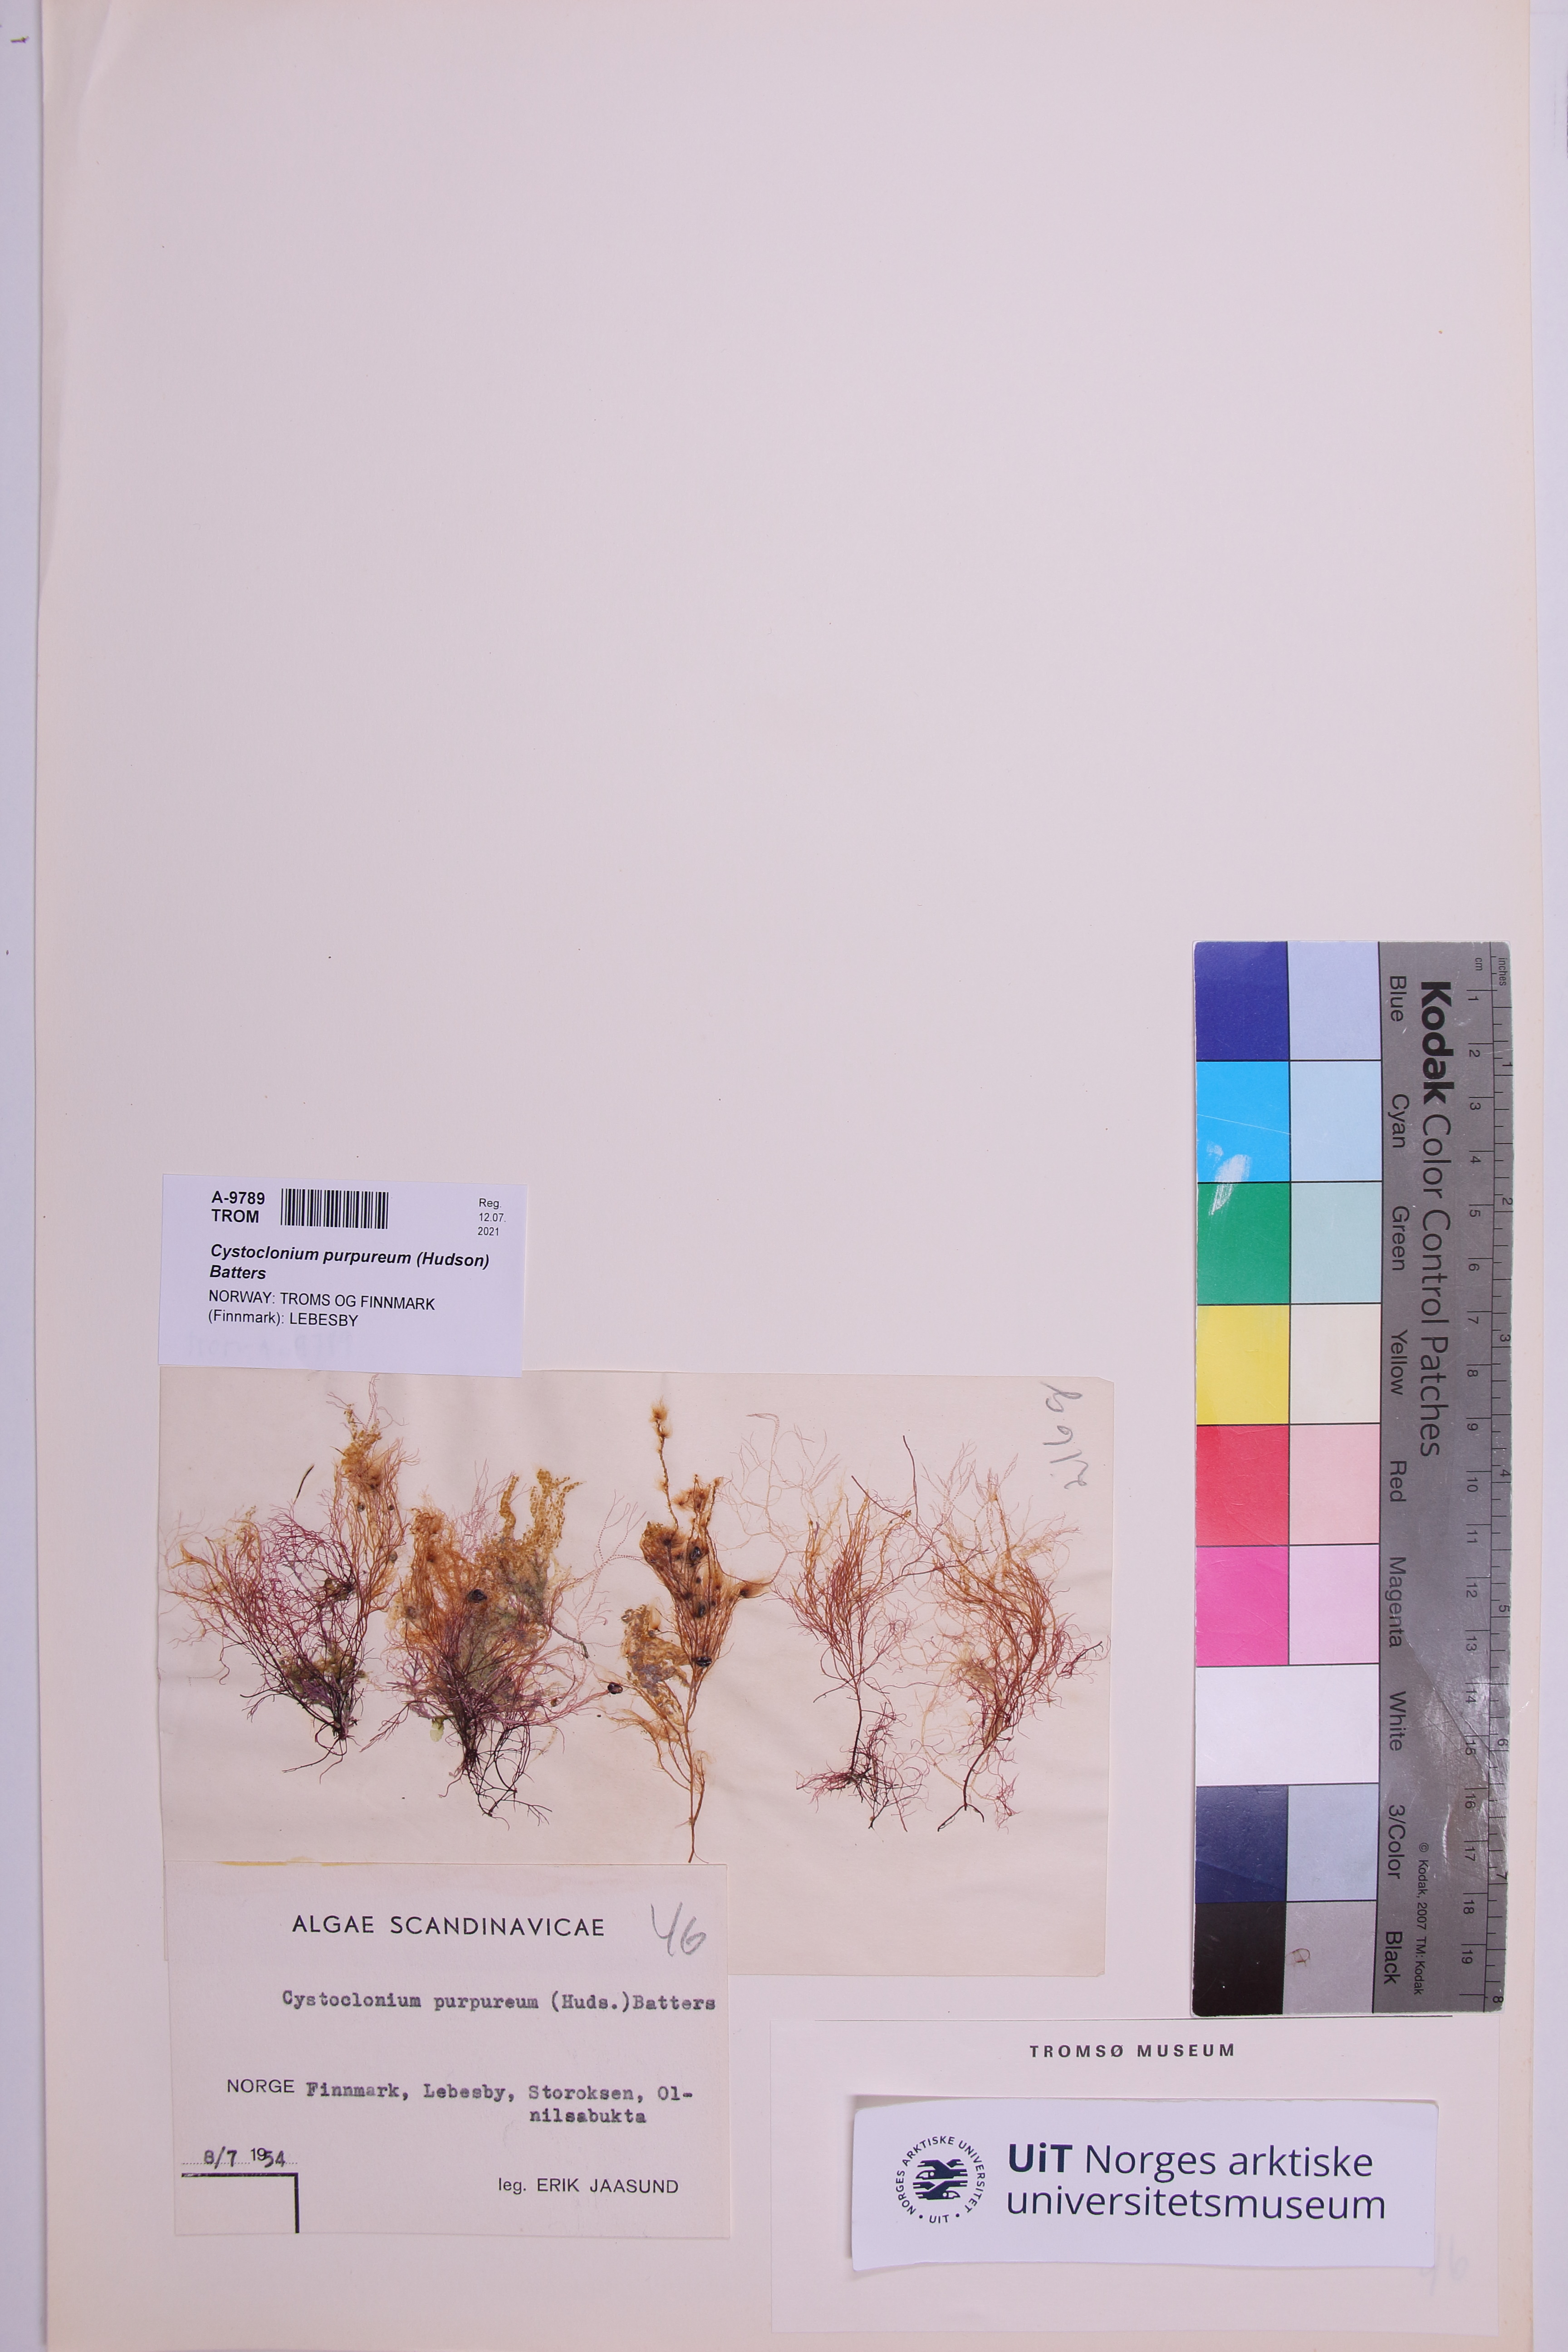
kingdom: Plantae
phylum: Rhodophyta
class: Florideophyceae
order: Gigartinales
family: Cystocloniaceae
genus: Cystoclonium
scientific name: Cystoclonium purpureum
